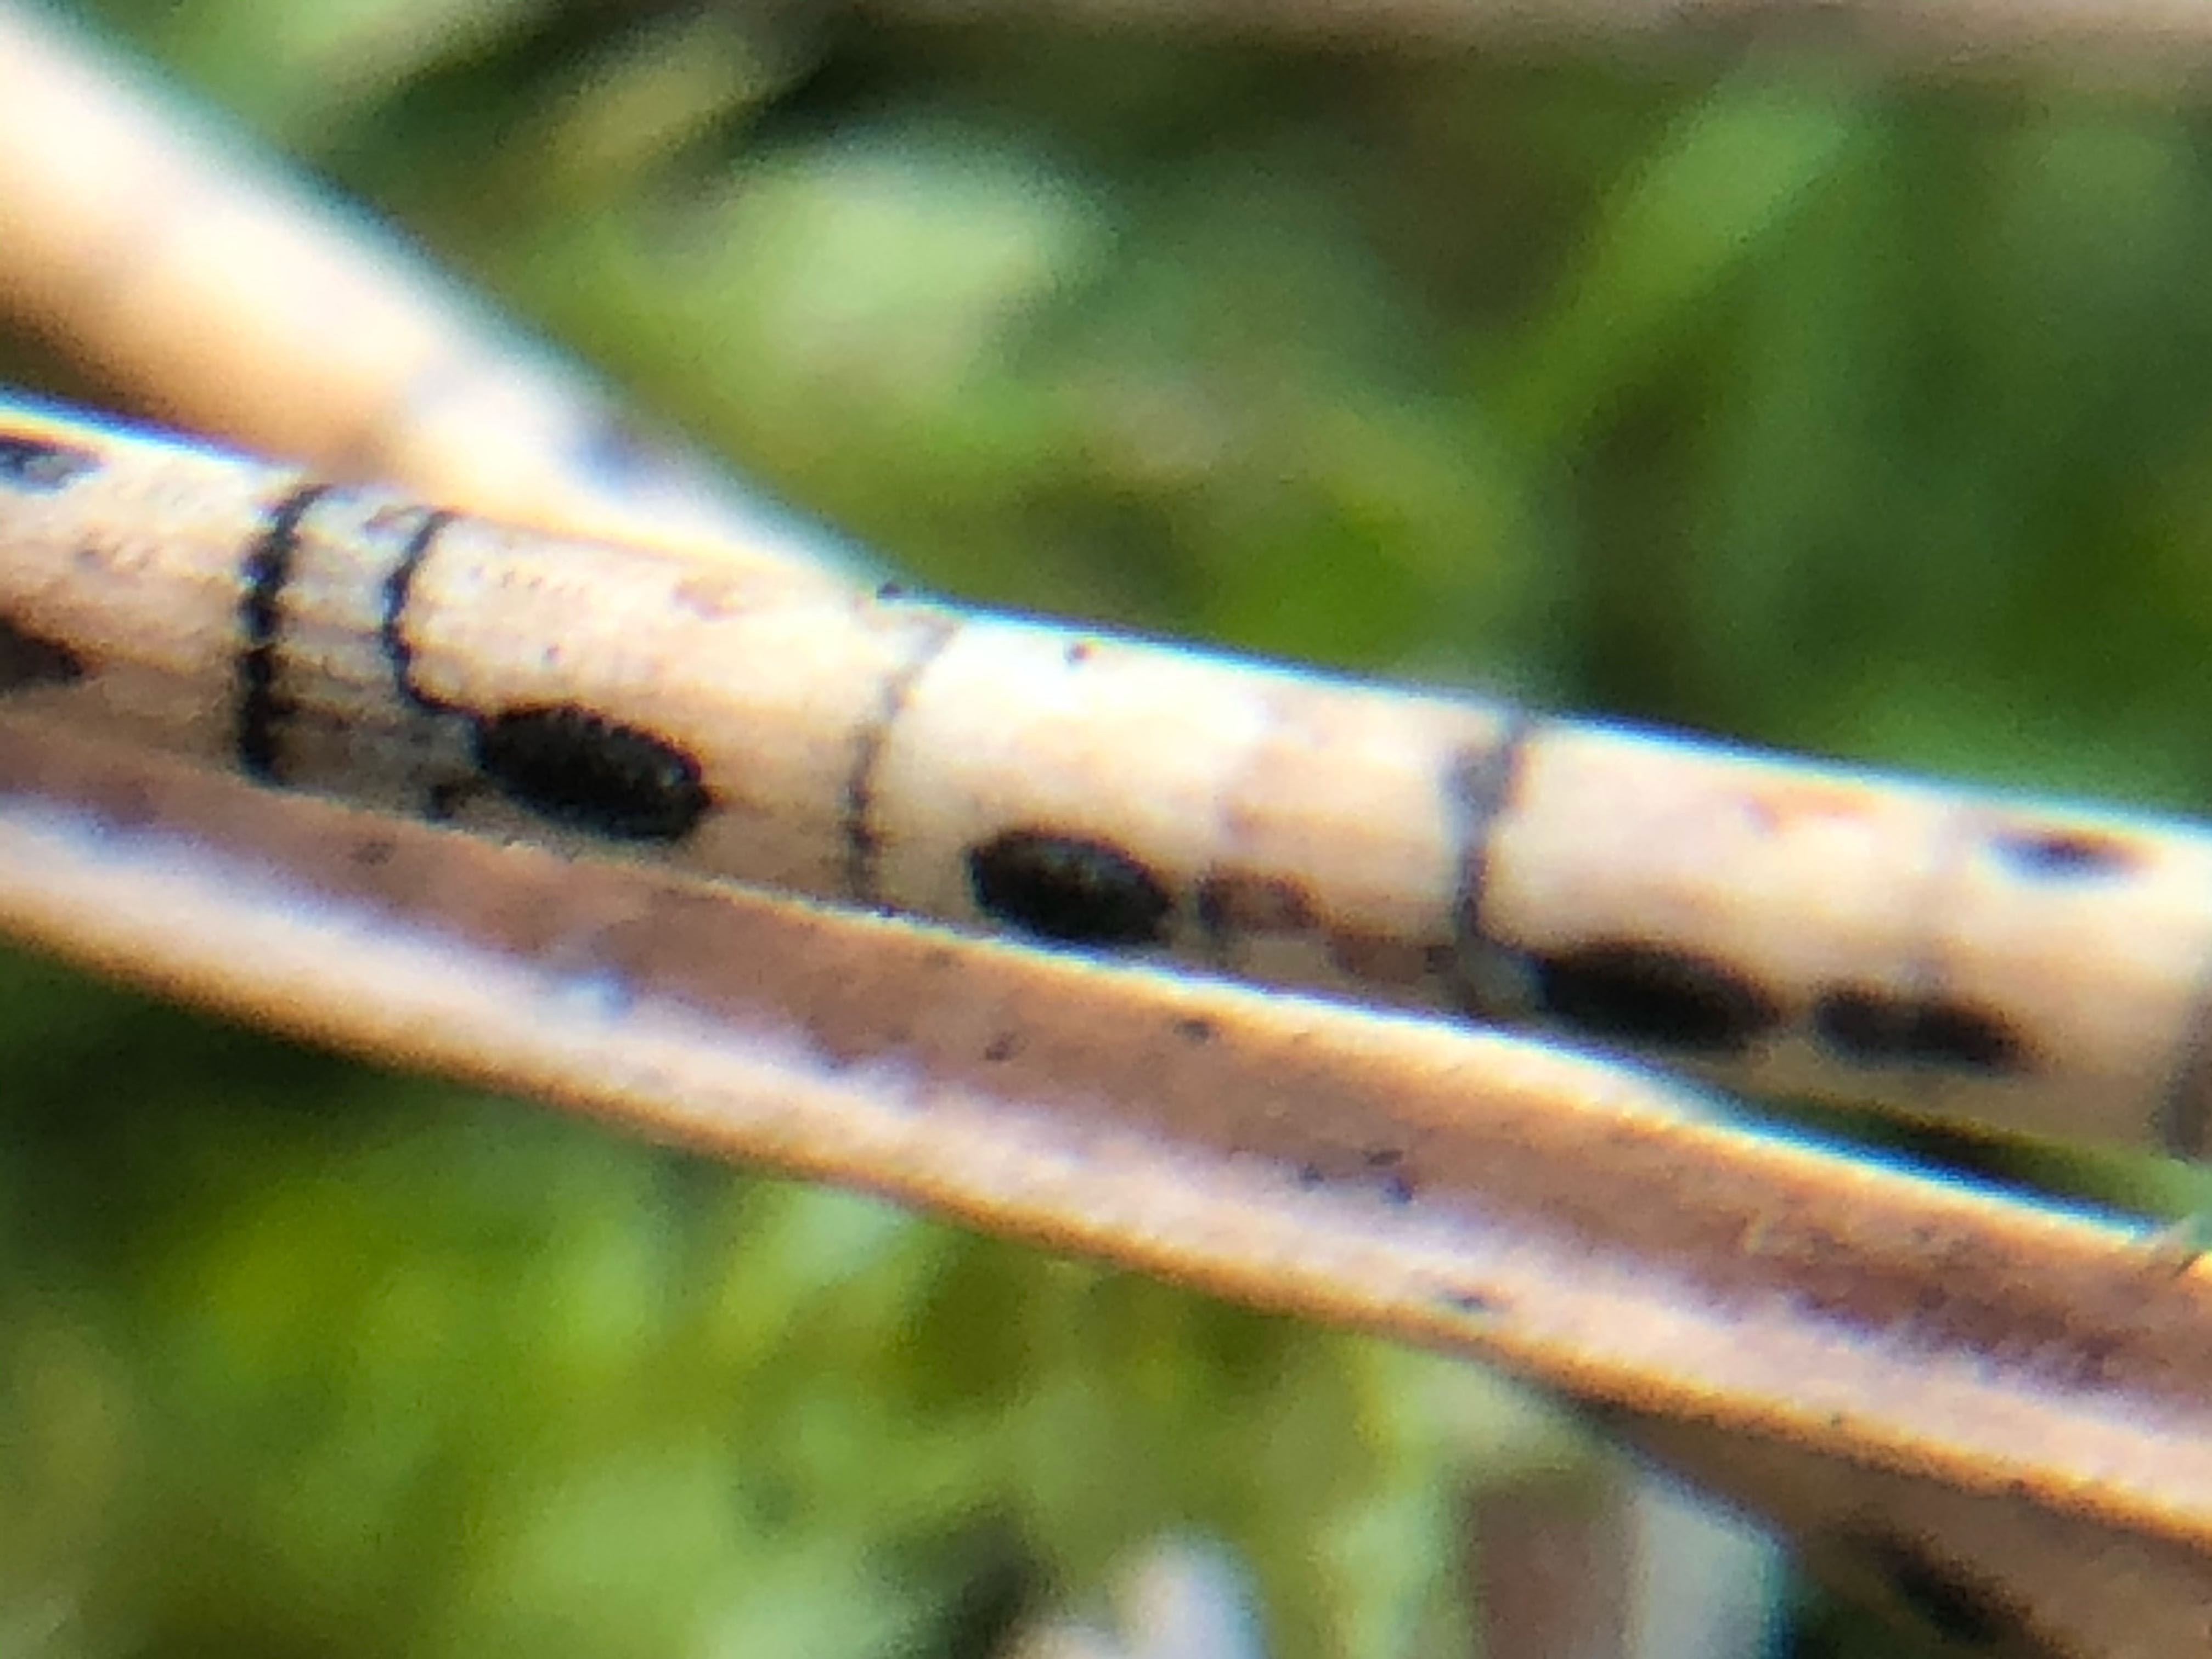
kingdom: Fungi
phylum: Ascomycota
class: Leotiomycetes
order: Rhytismatales
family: Rhytismataceae
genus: Lophodermium
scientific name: Lophodermium pinastri
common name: fyrre-fureplet
